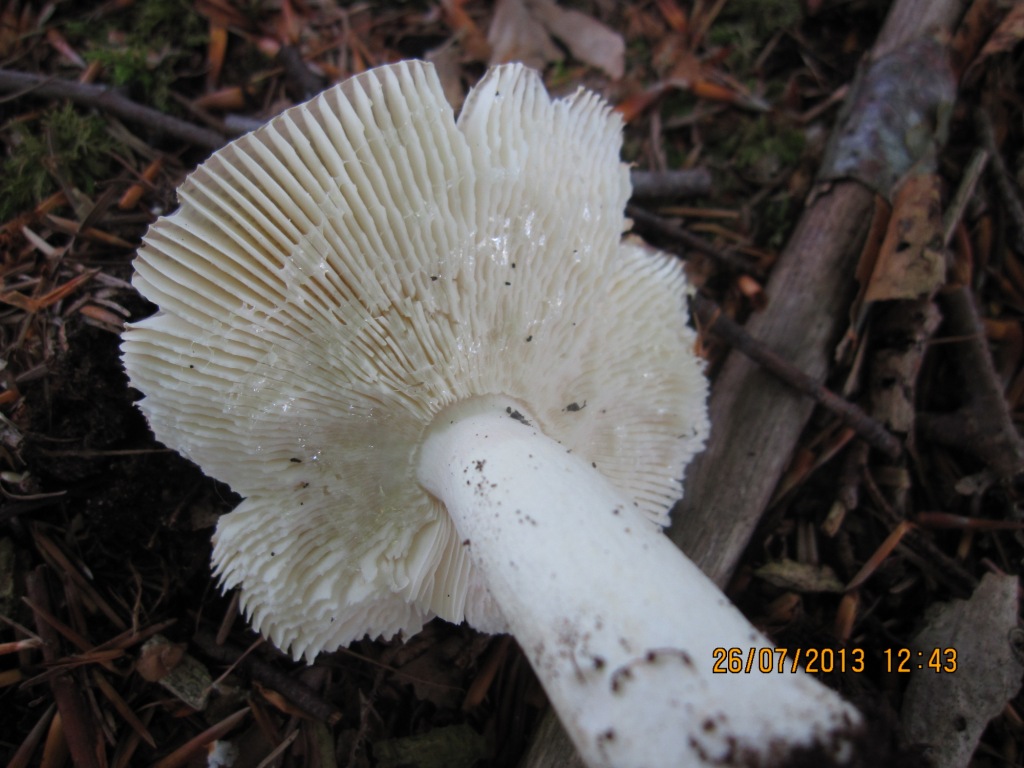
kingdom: Fungi
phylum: Basidiomycota
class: Agaricomycetes
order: Russulales
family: Russulaceae
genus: Russula
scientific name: Russula grisea
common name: grålig skørhat
